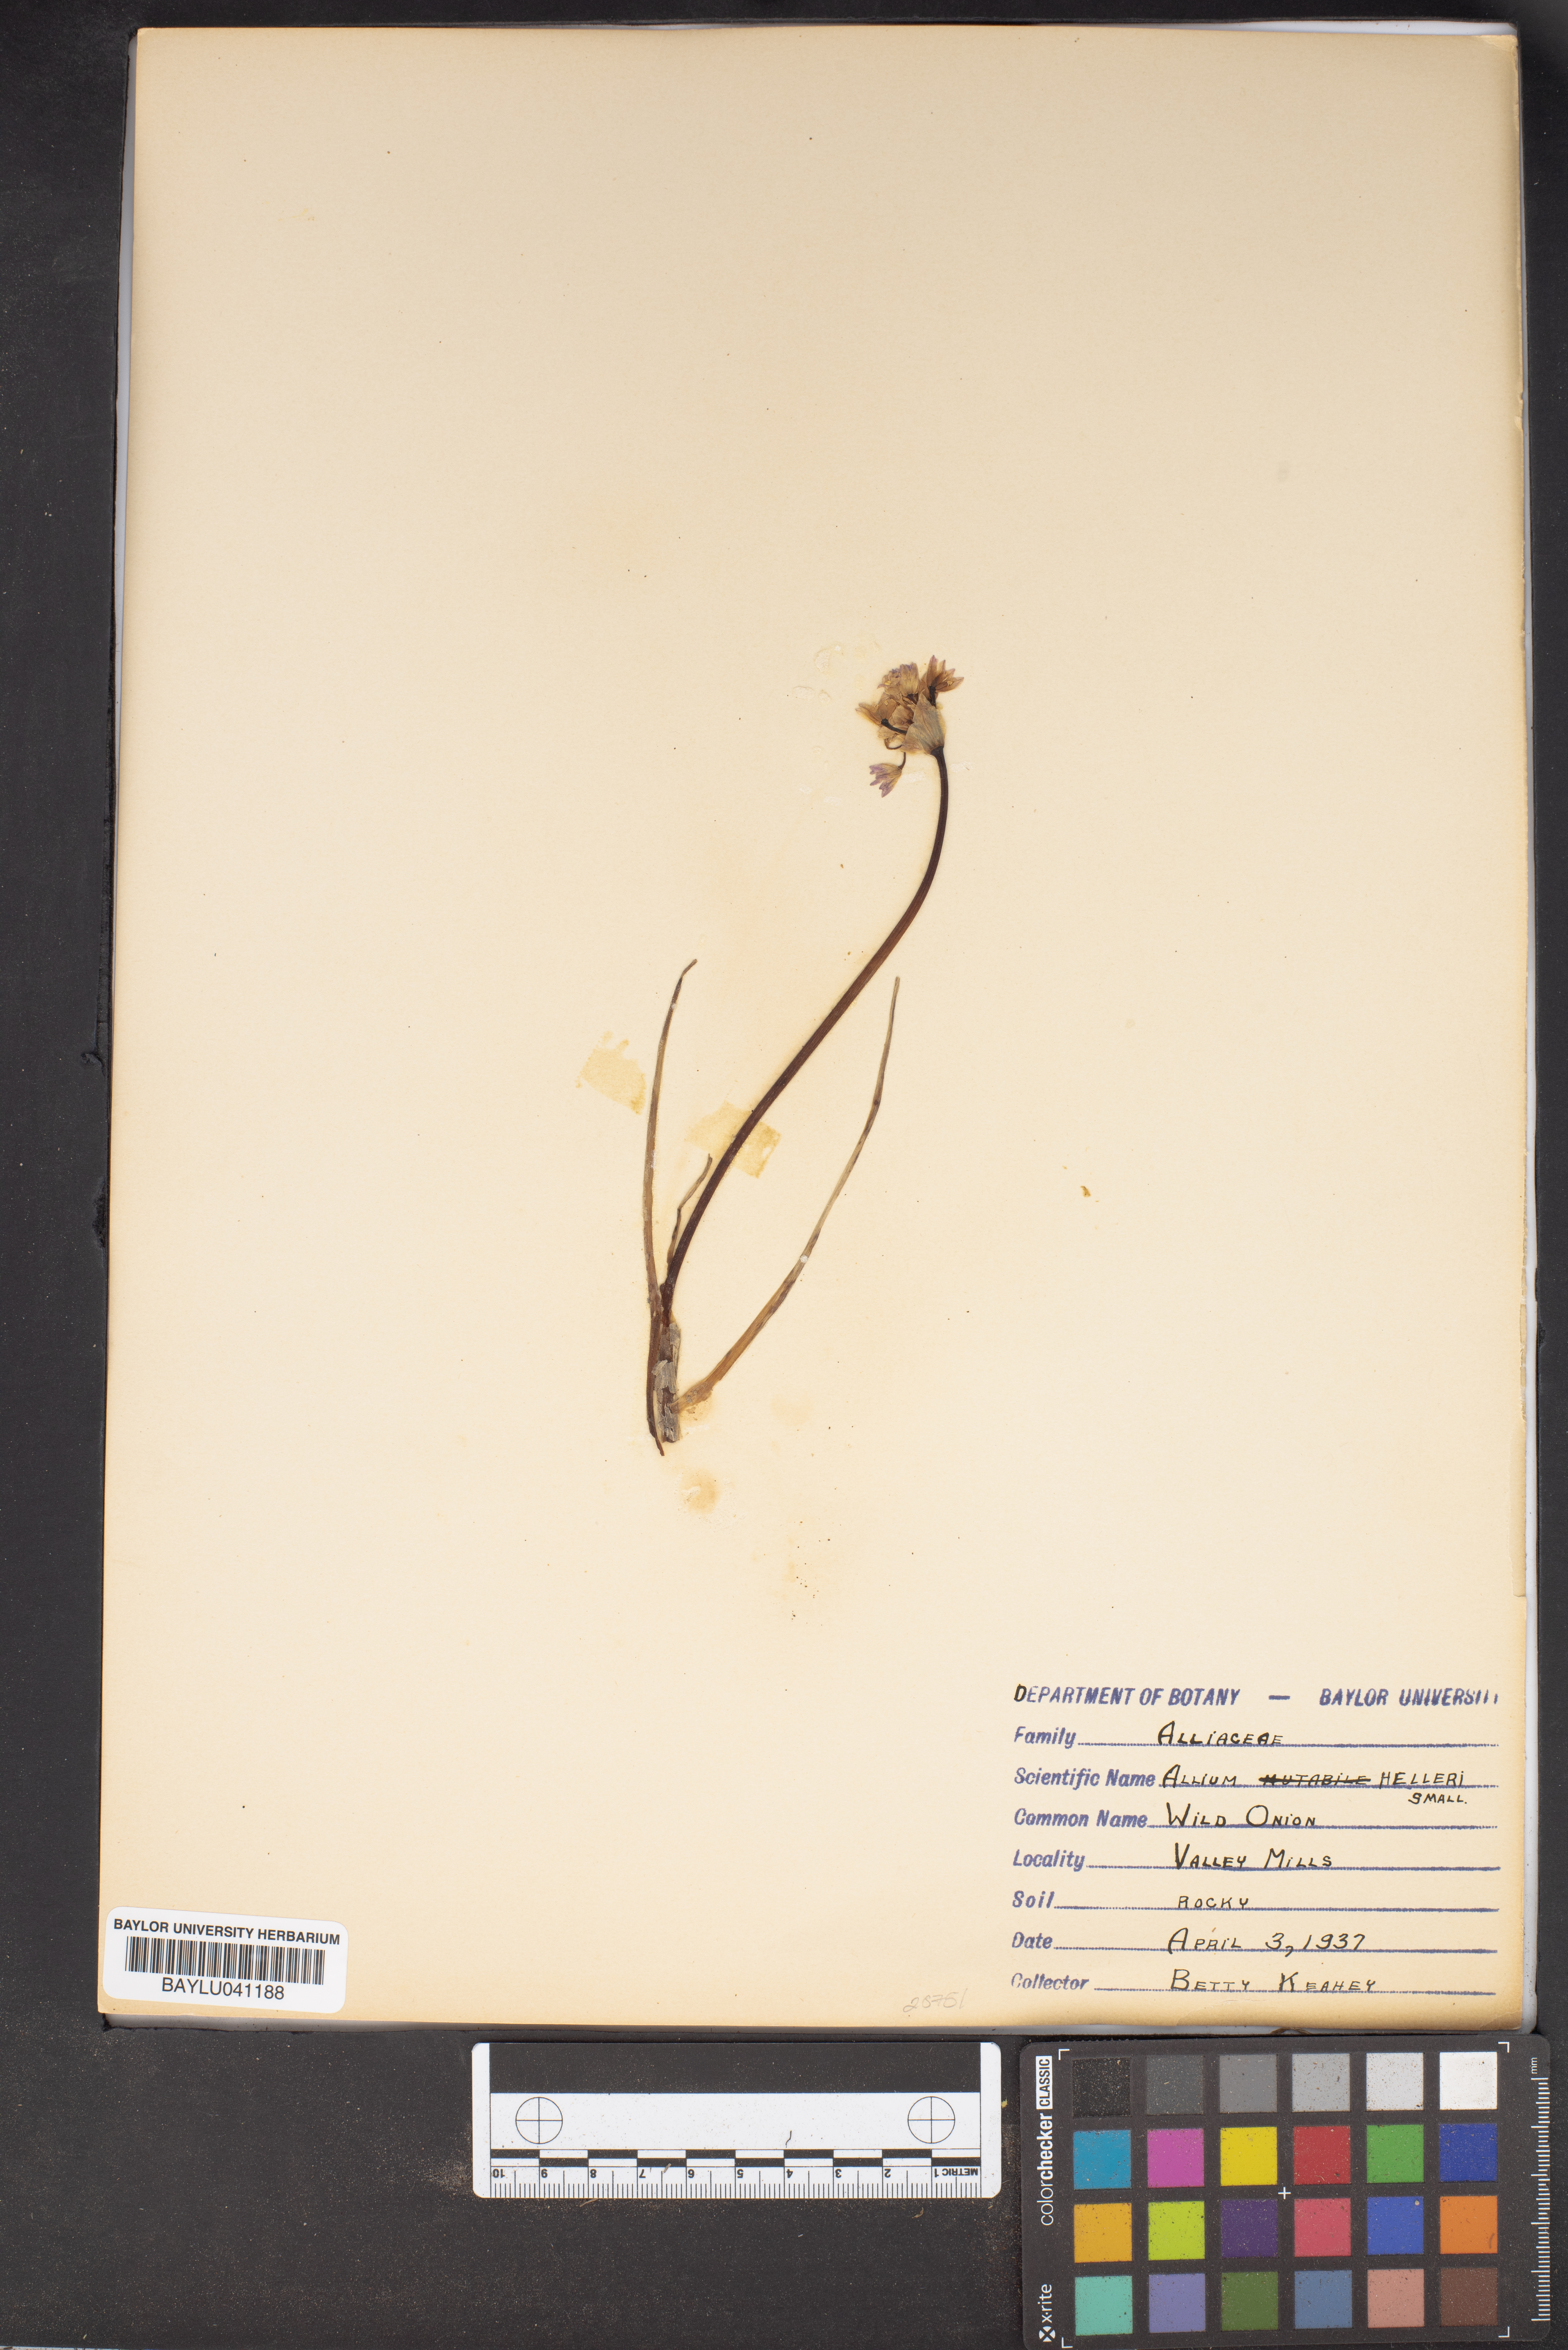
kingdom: Plantae
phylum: Tracheophyta
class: Liliopsida
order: Asparagales
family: Amaryllidaceae
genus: Allium
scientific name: Allium drummondii
